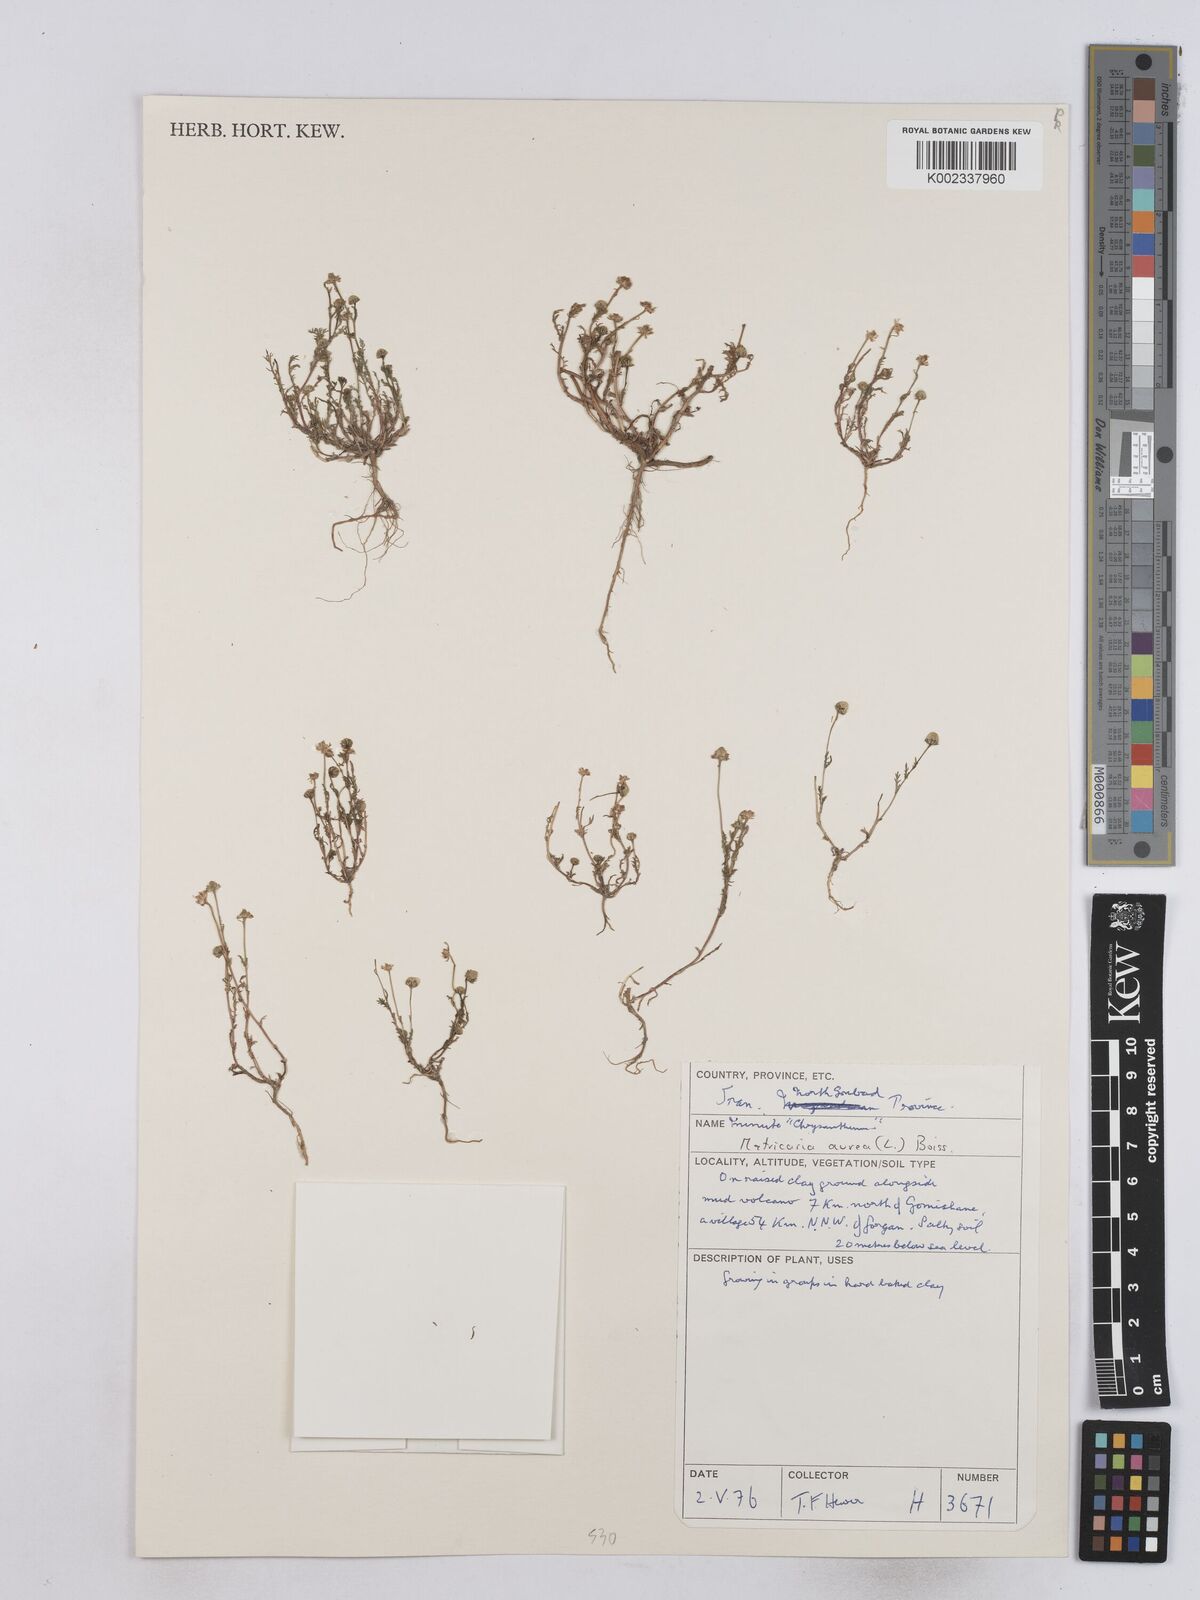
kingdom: Plantae
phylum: Tracheophyta
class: Magnoliopsida
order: Asterales
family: Asteraceae
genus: Matricaria
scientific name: Matricaria aurea
